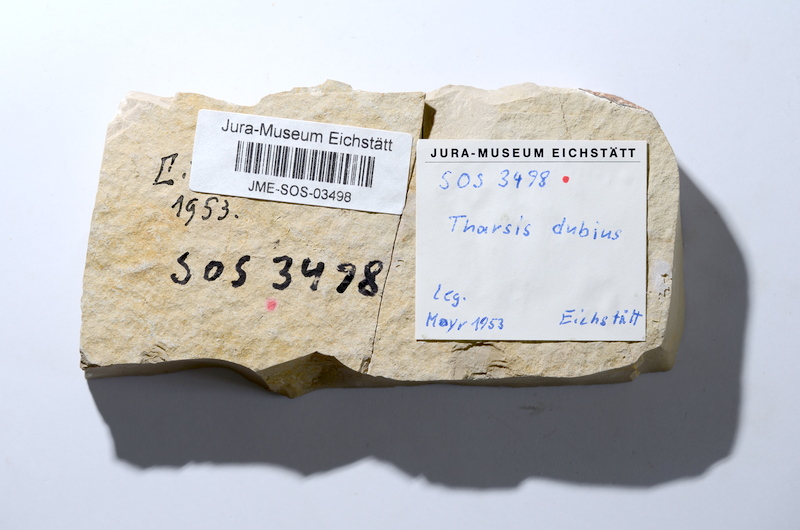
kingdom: Animalia
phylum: Chordata
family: Ascalaboidae
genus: Tharsis
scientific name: Tharsis dubius
